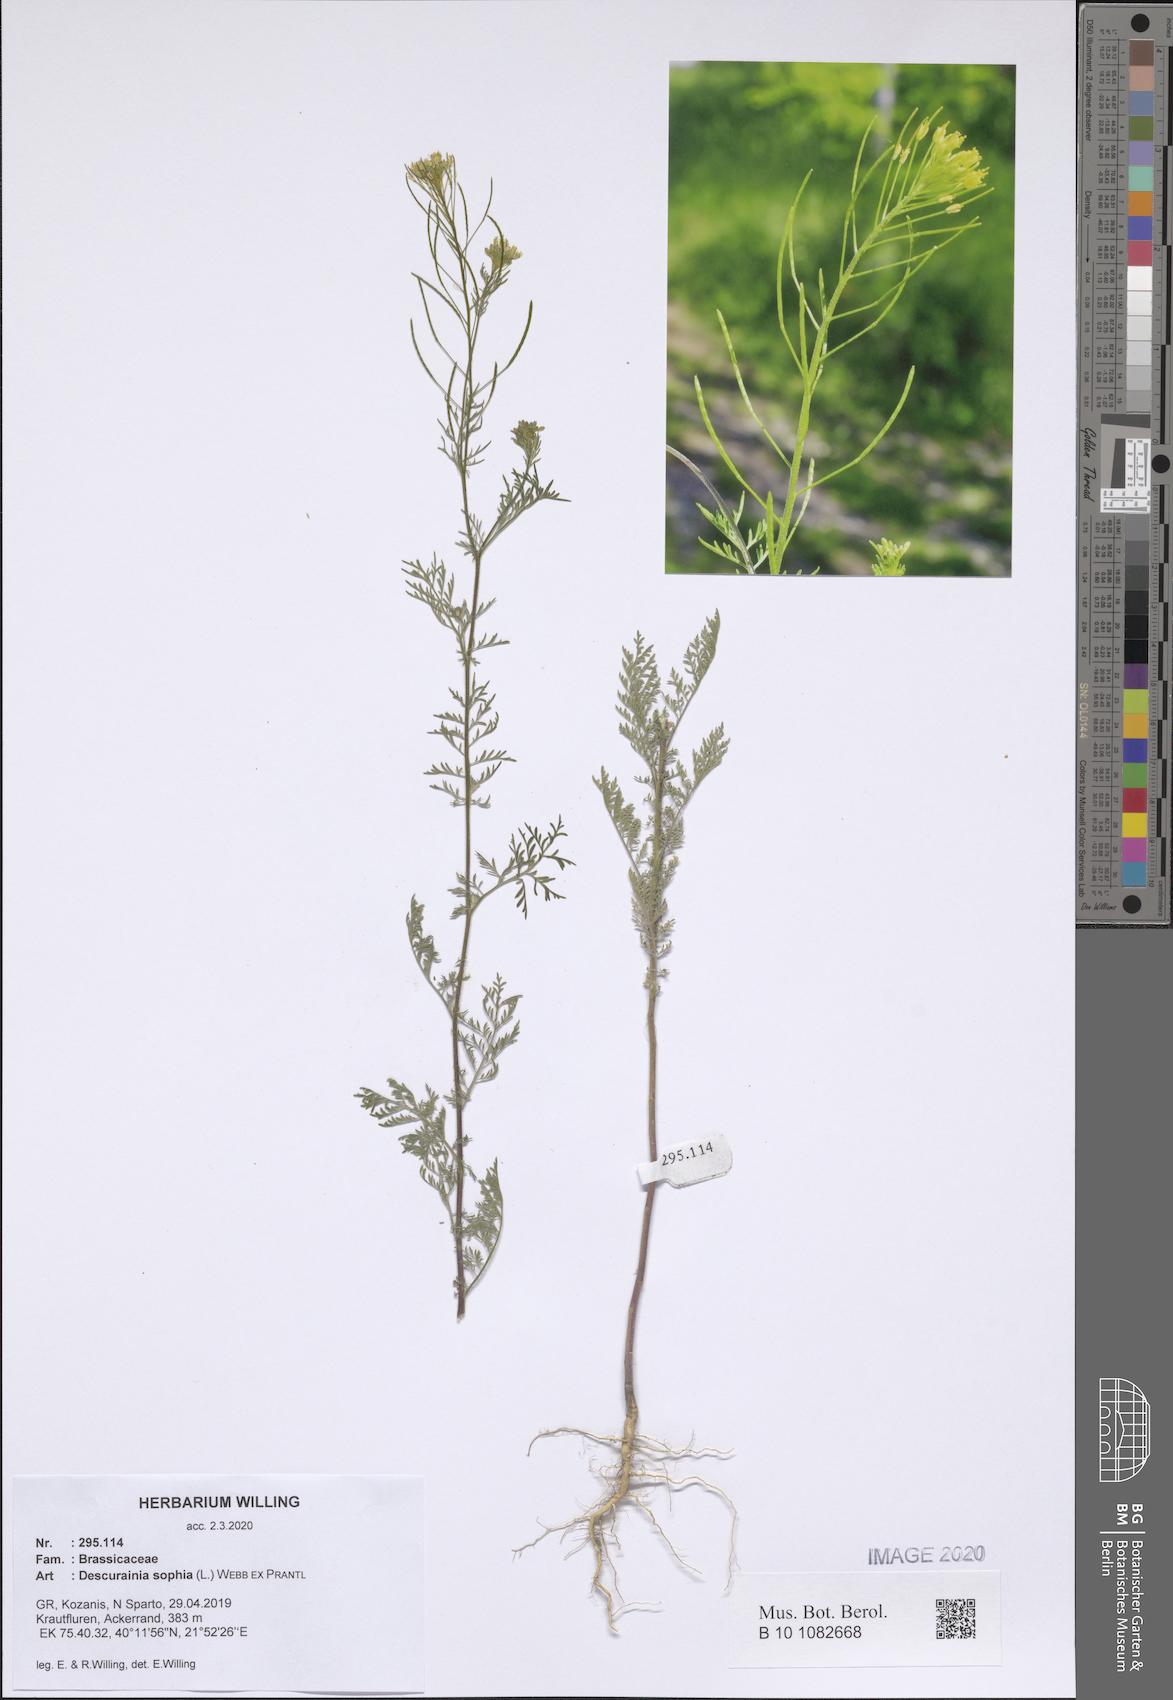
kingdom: Plantae
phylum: Tracheophyta
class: Magnoliopsida
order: Brassicales
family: Brassicaceae
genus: Descurainia
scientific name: Descurainia sophia
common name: Flixweed
